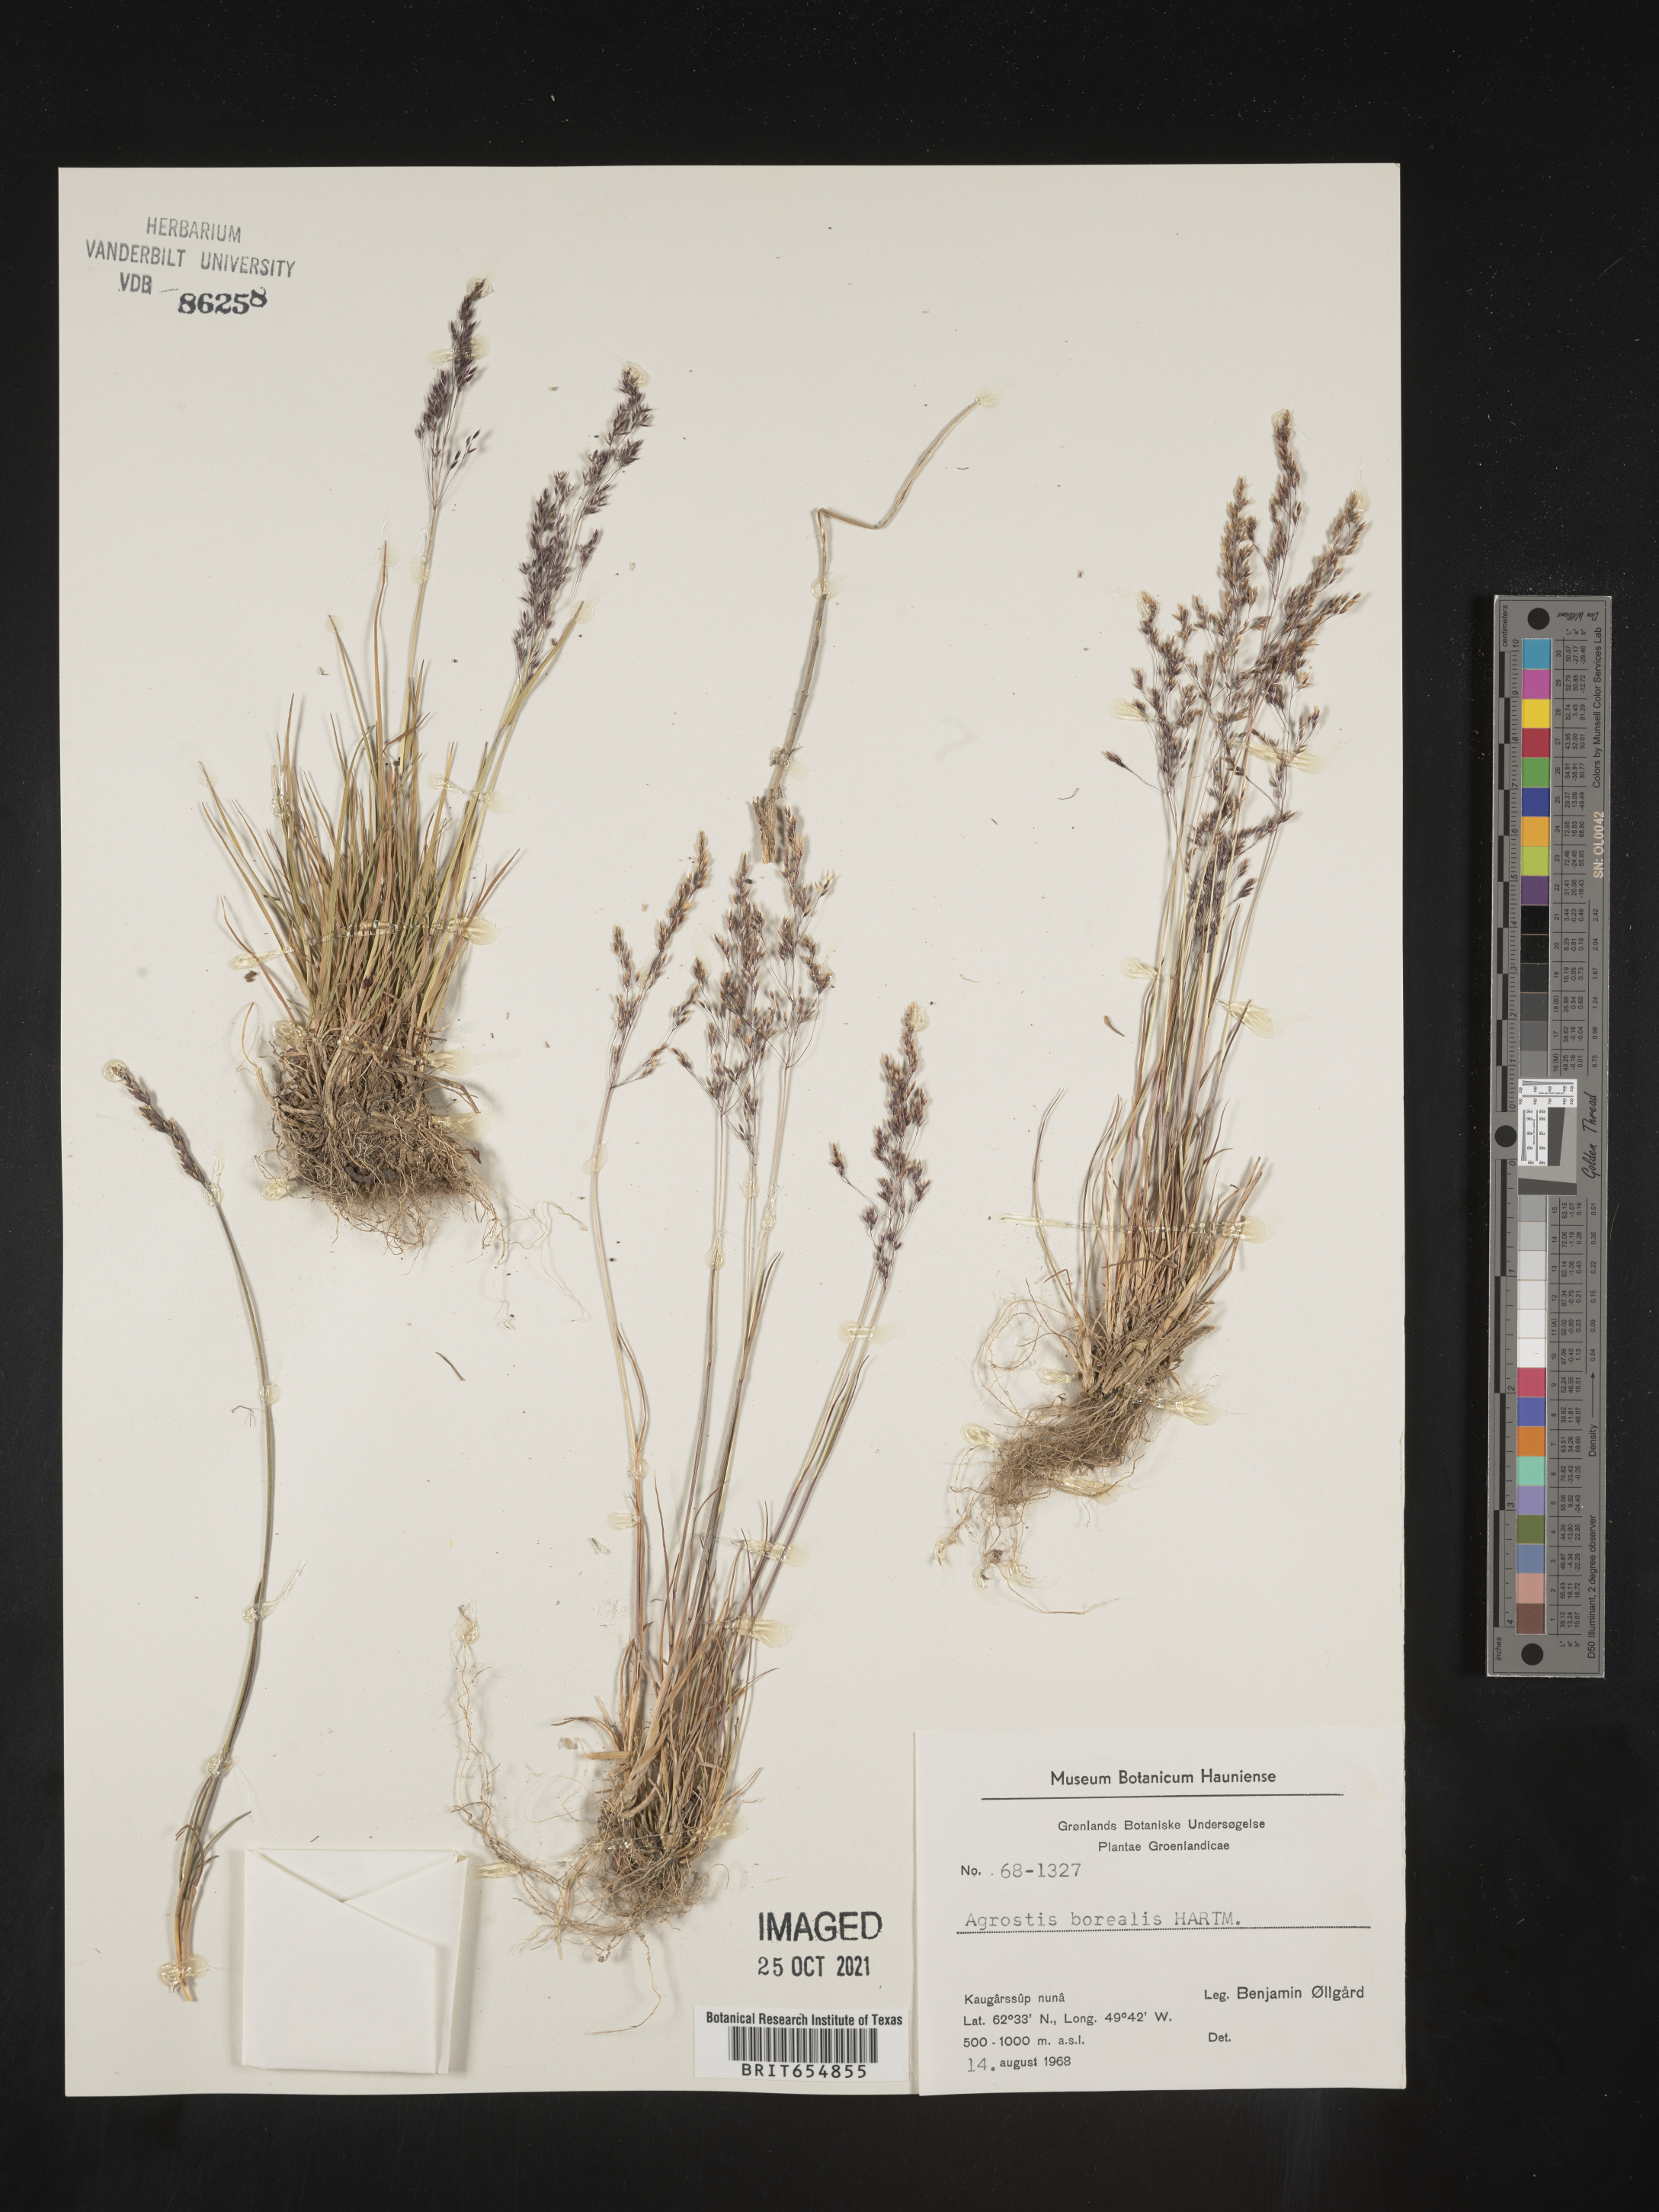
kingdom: Plantae
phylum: Tracheophyta
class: Liliopsida
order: Poales
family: Poaceae
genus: Agrostis
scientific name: Agrostis
